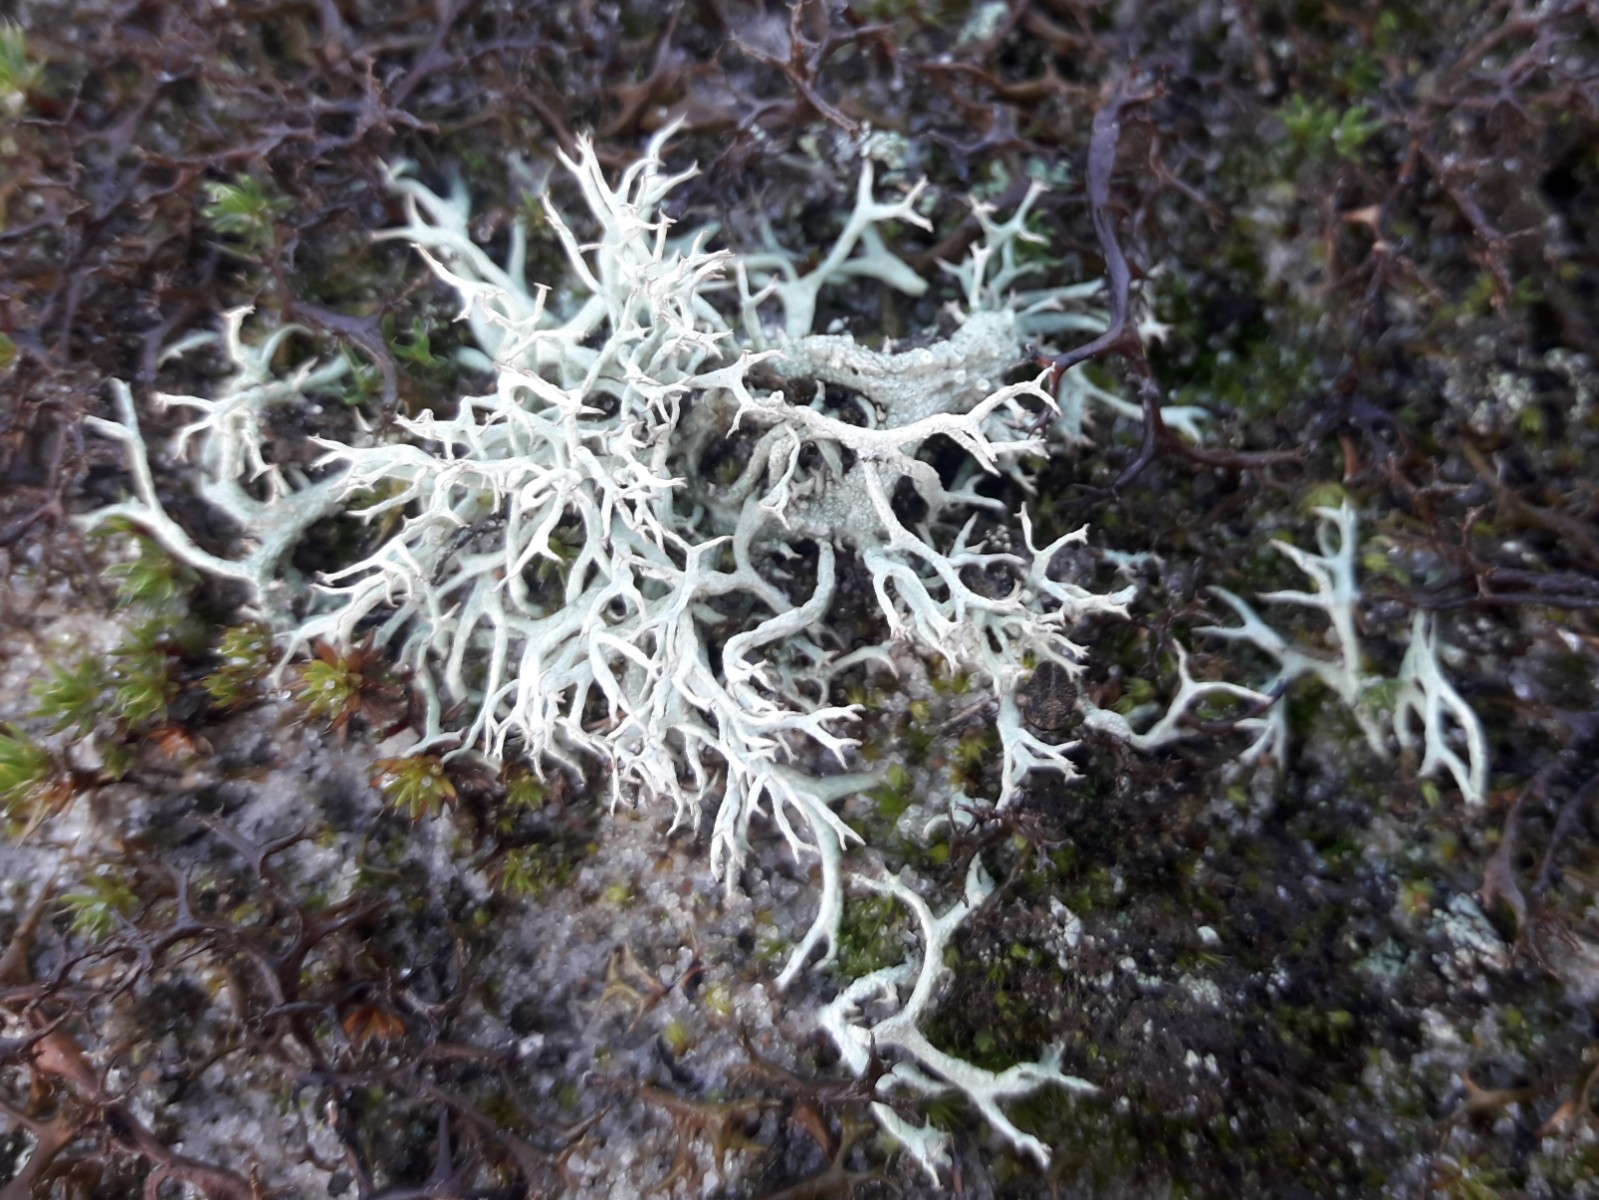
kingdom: Fungi
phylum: Ascomycota
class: Lecanoromycetes
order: Lecanorales
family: Cladoniaceae
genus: Cladonia
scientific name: Cladonia zopfii
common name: klit-bægerlav
